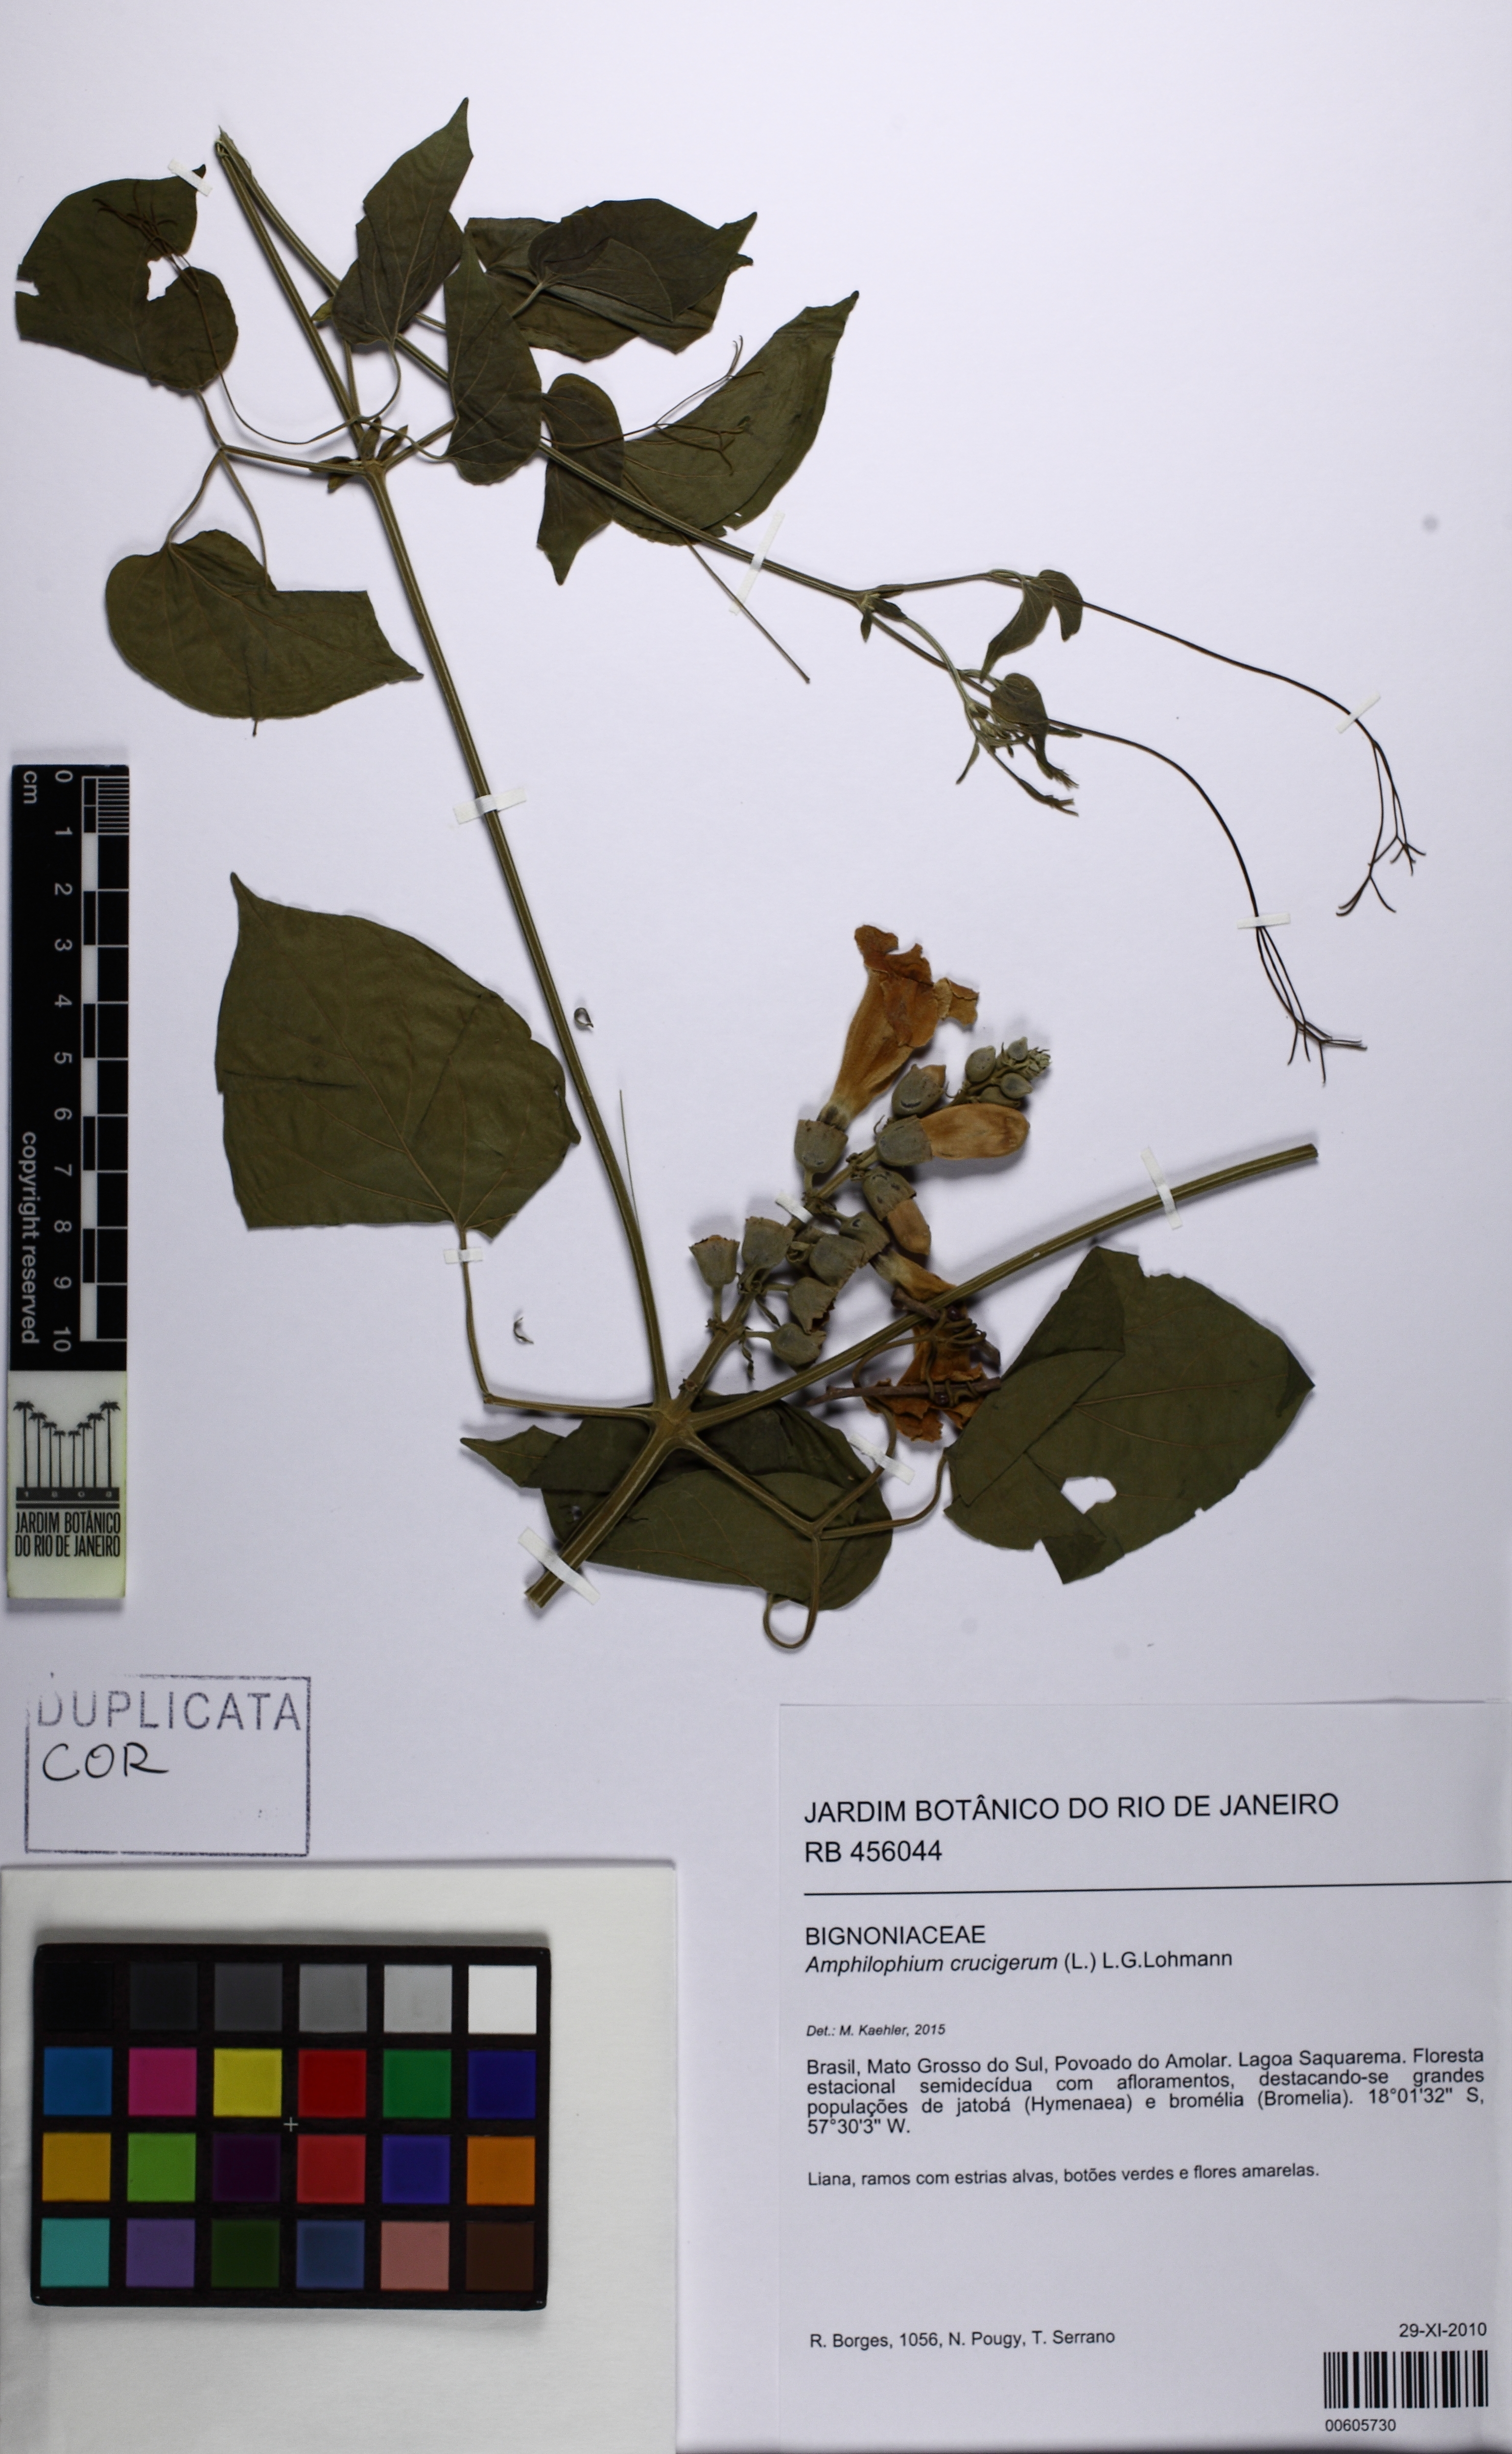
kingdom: Plantae
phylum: Tracheophyta
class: Magnoliopsida
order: Lamiales
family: Bignoniaceae
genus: Amphilophium
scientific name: Amphilophium crucigerum
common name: Monkey comb
